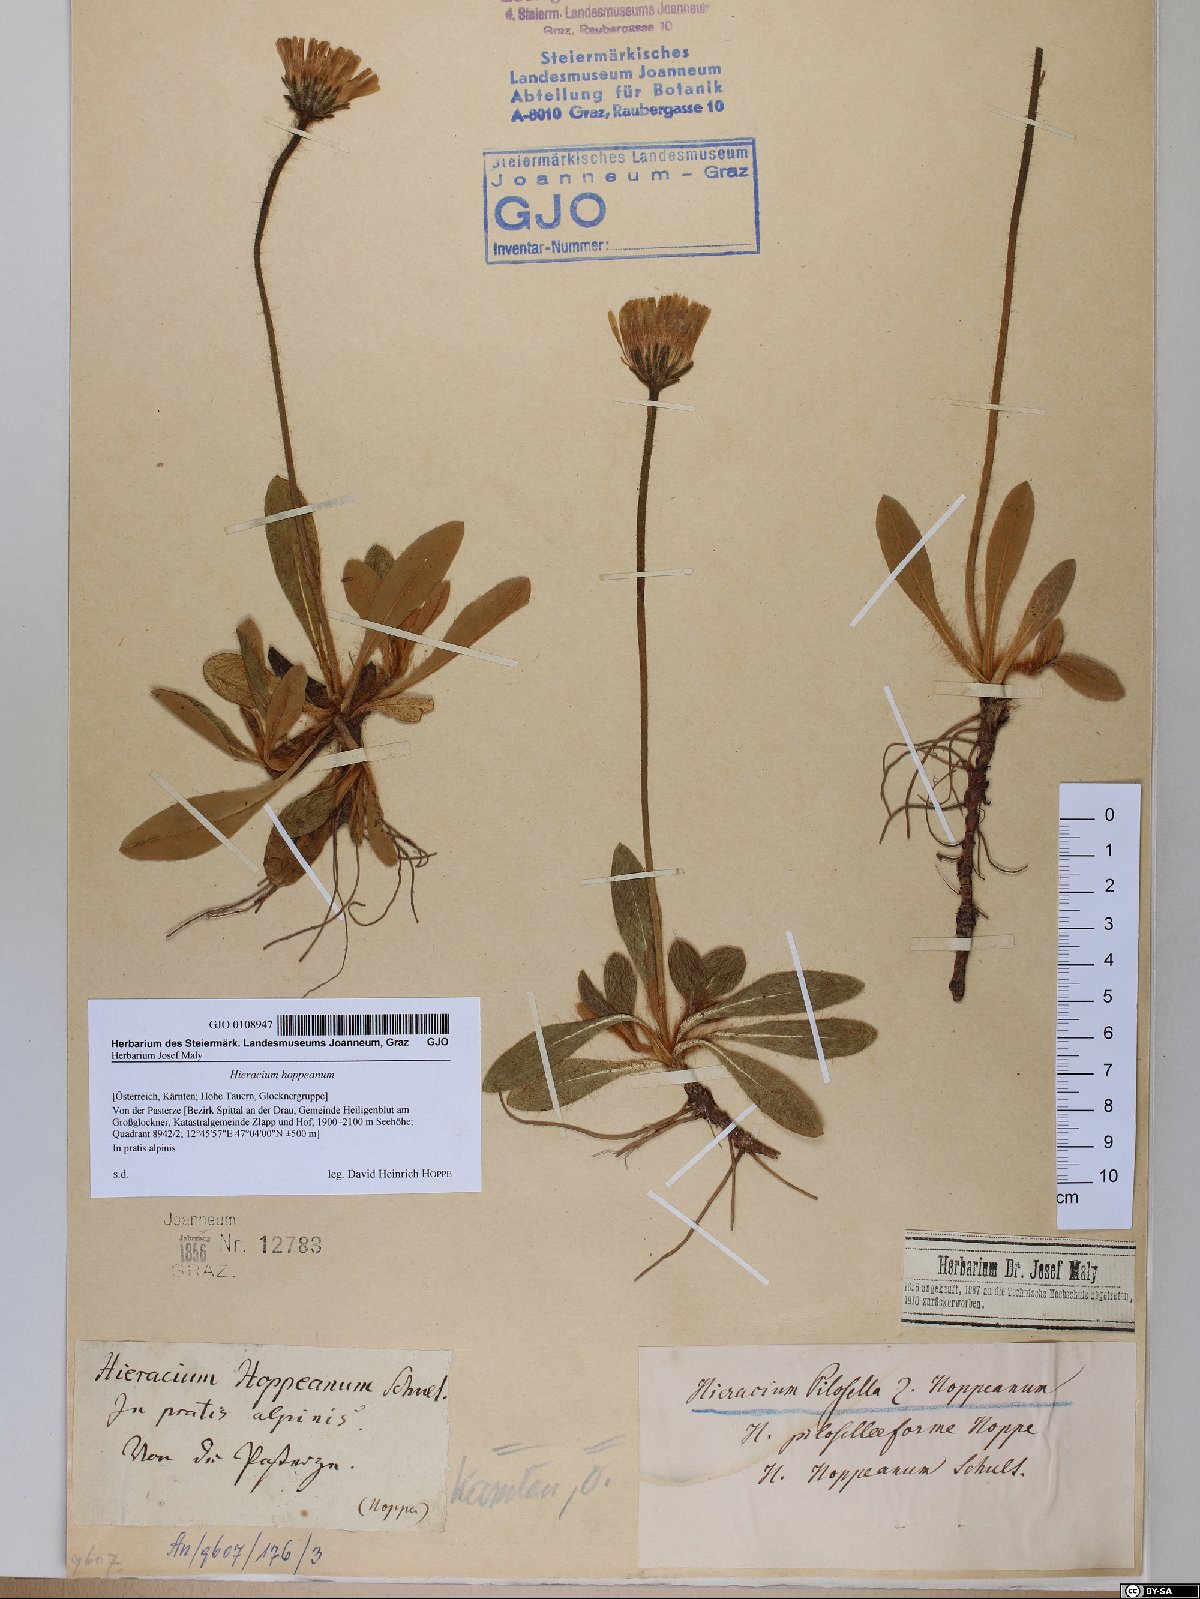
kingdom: Plantae
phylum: Tracheophyta
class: Magnoliopsida
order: Asterales
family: Asteraceae
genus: Pilosella
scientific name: Pilosella hoppeana
